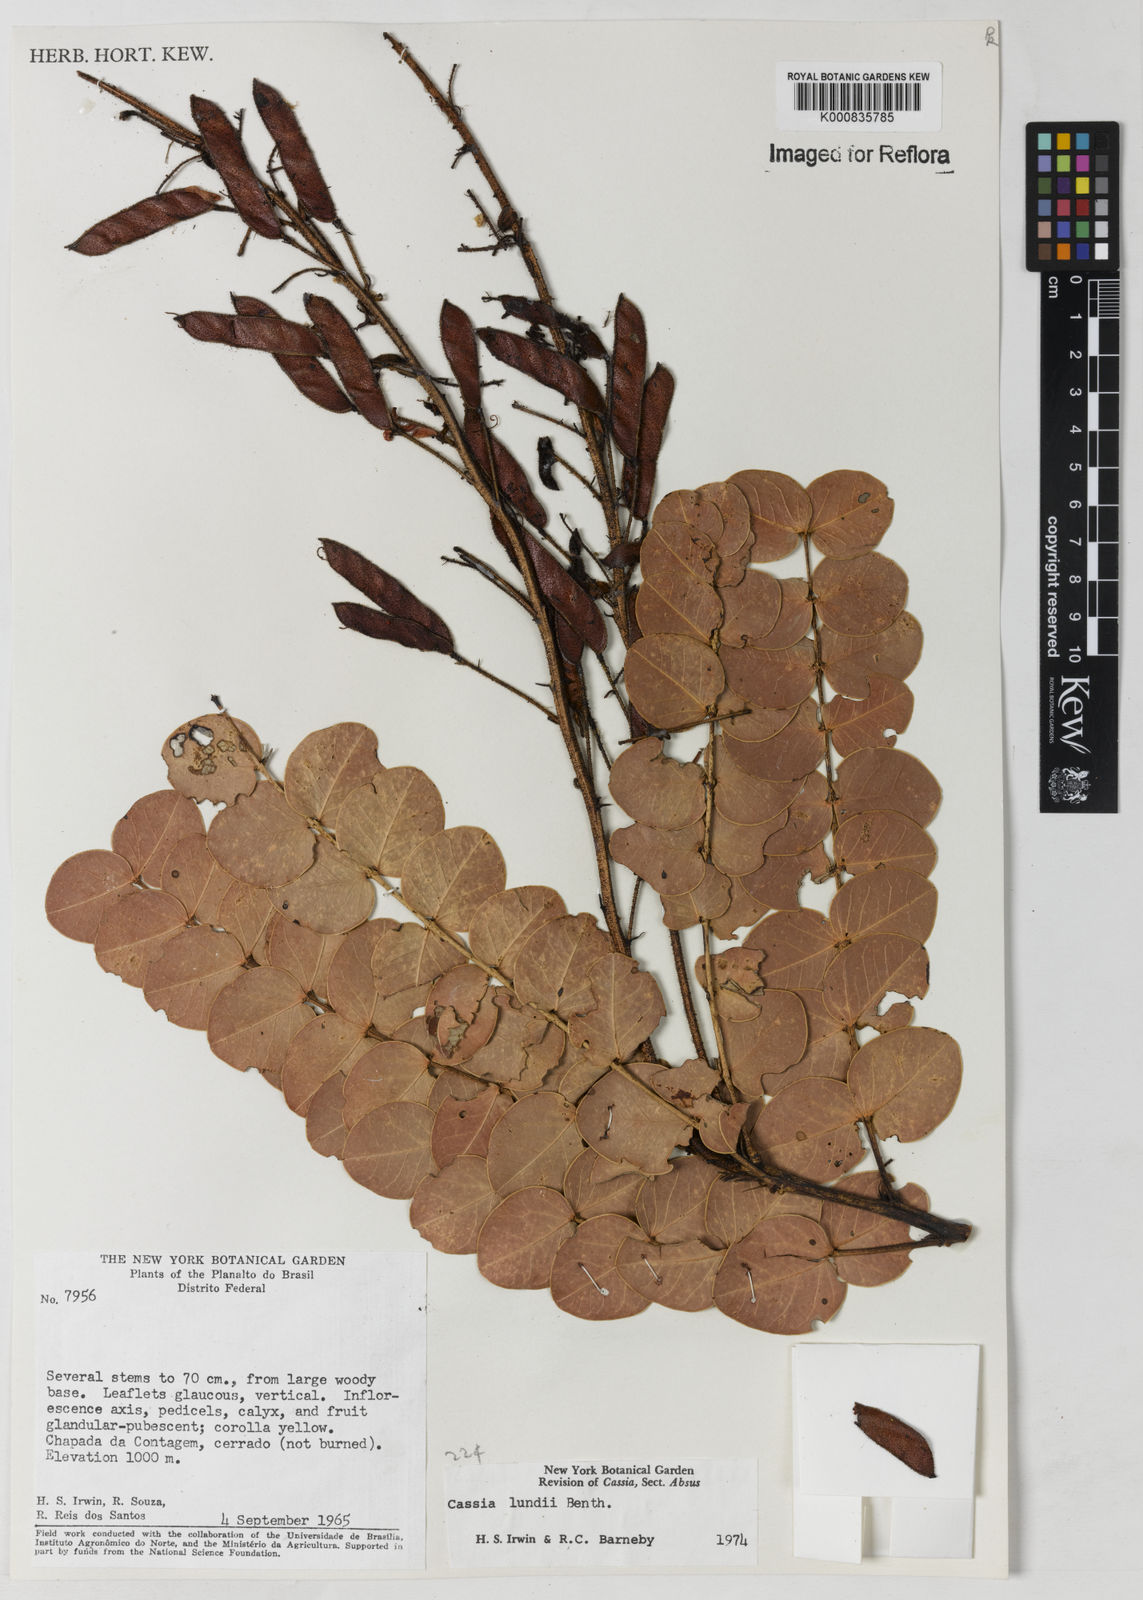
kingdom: Plantae
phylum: Tracheophyta
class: Magnoliopsida
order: Fabales
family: Fabaceae
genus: Chamaecrista
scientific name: Chamaecrista lundii
